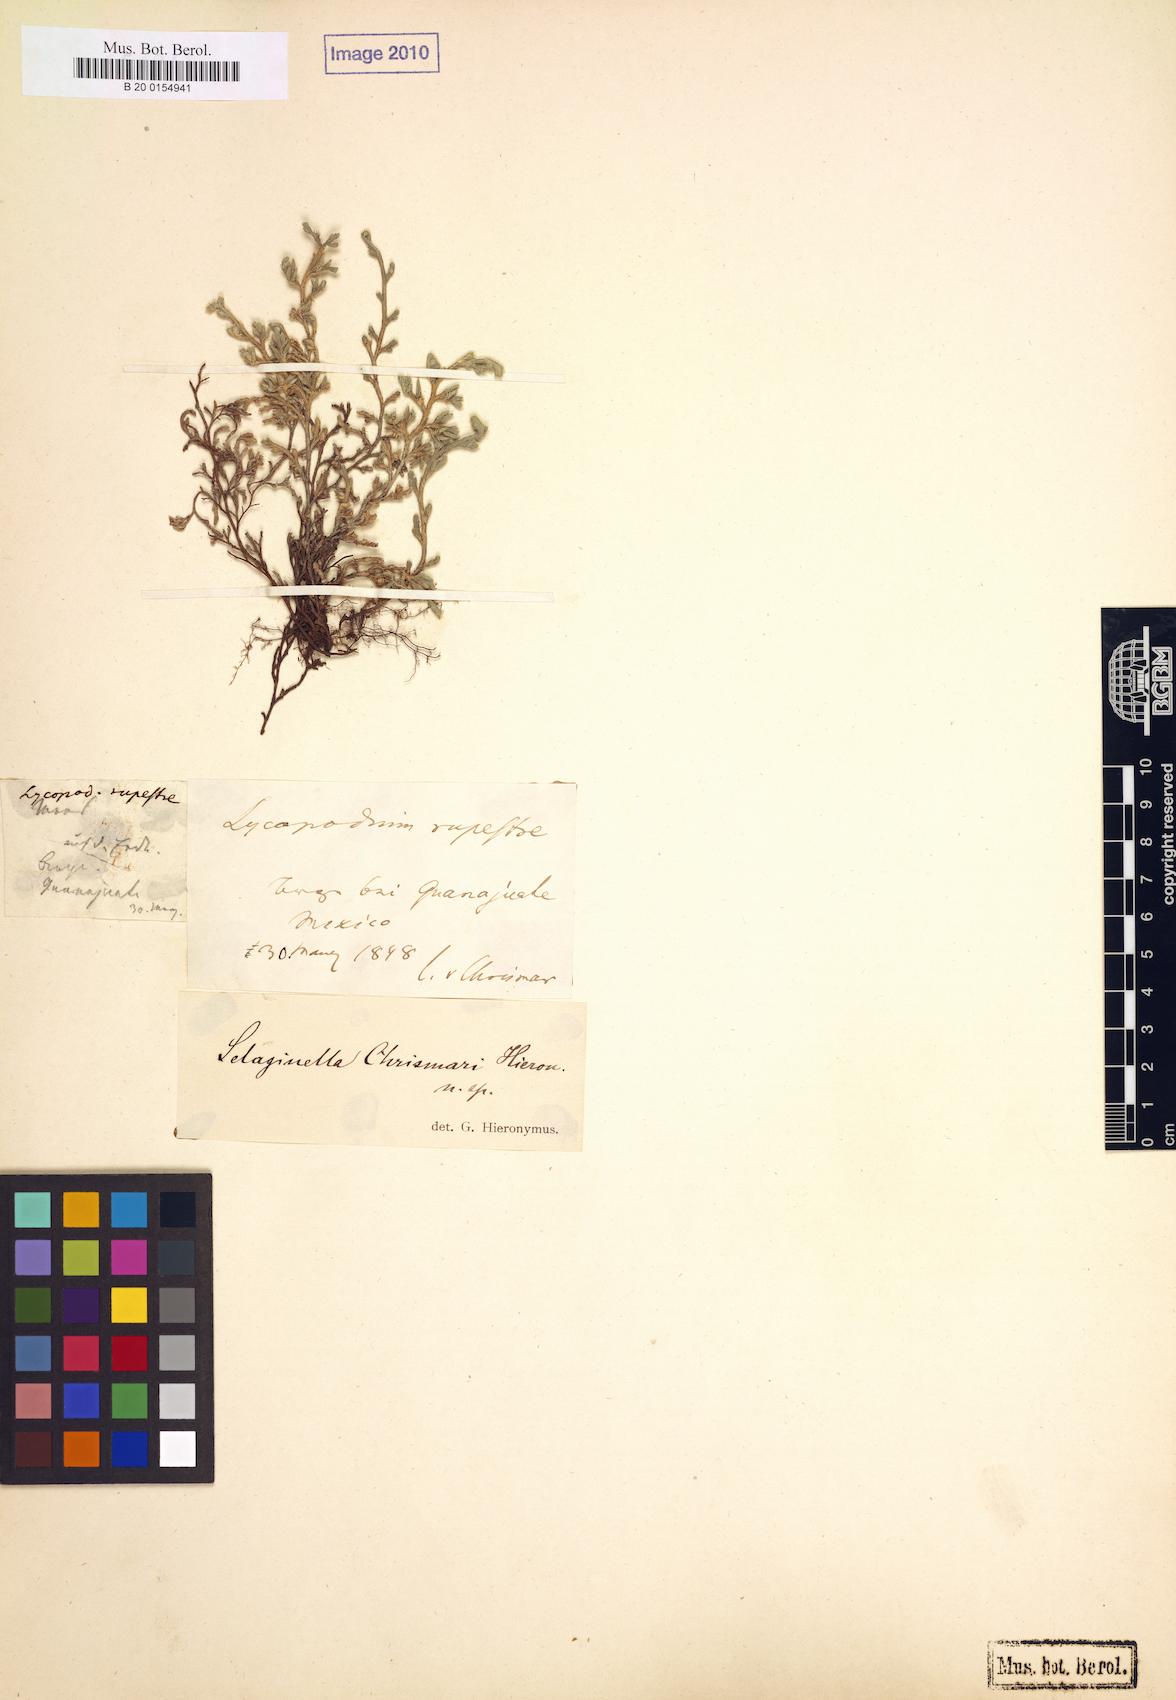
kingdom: Plantae
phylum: Tracheophyta
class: Lycopodiopsida
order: Selaginellales
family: Selaginellaceae
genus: Selaginella
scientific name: Selaginella rupincola
